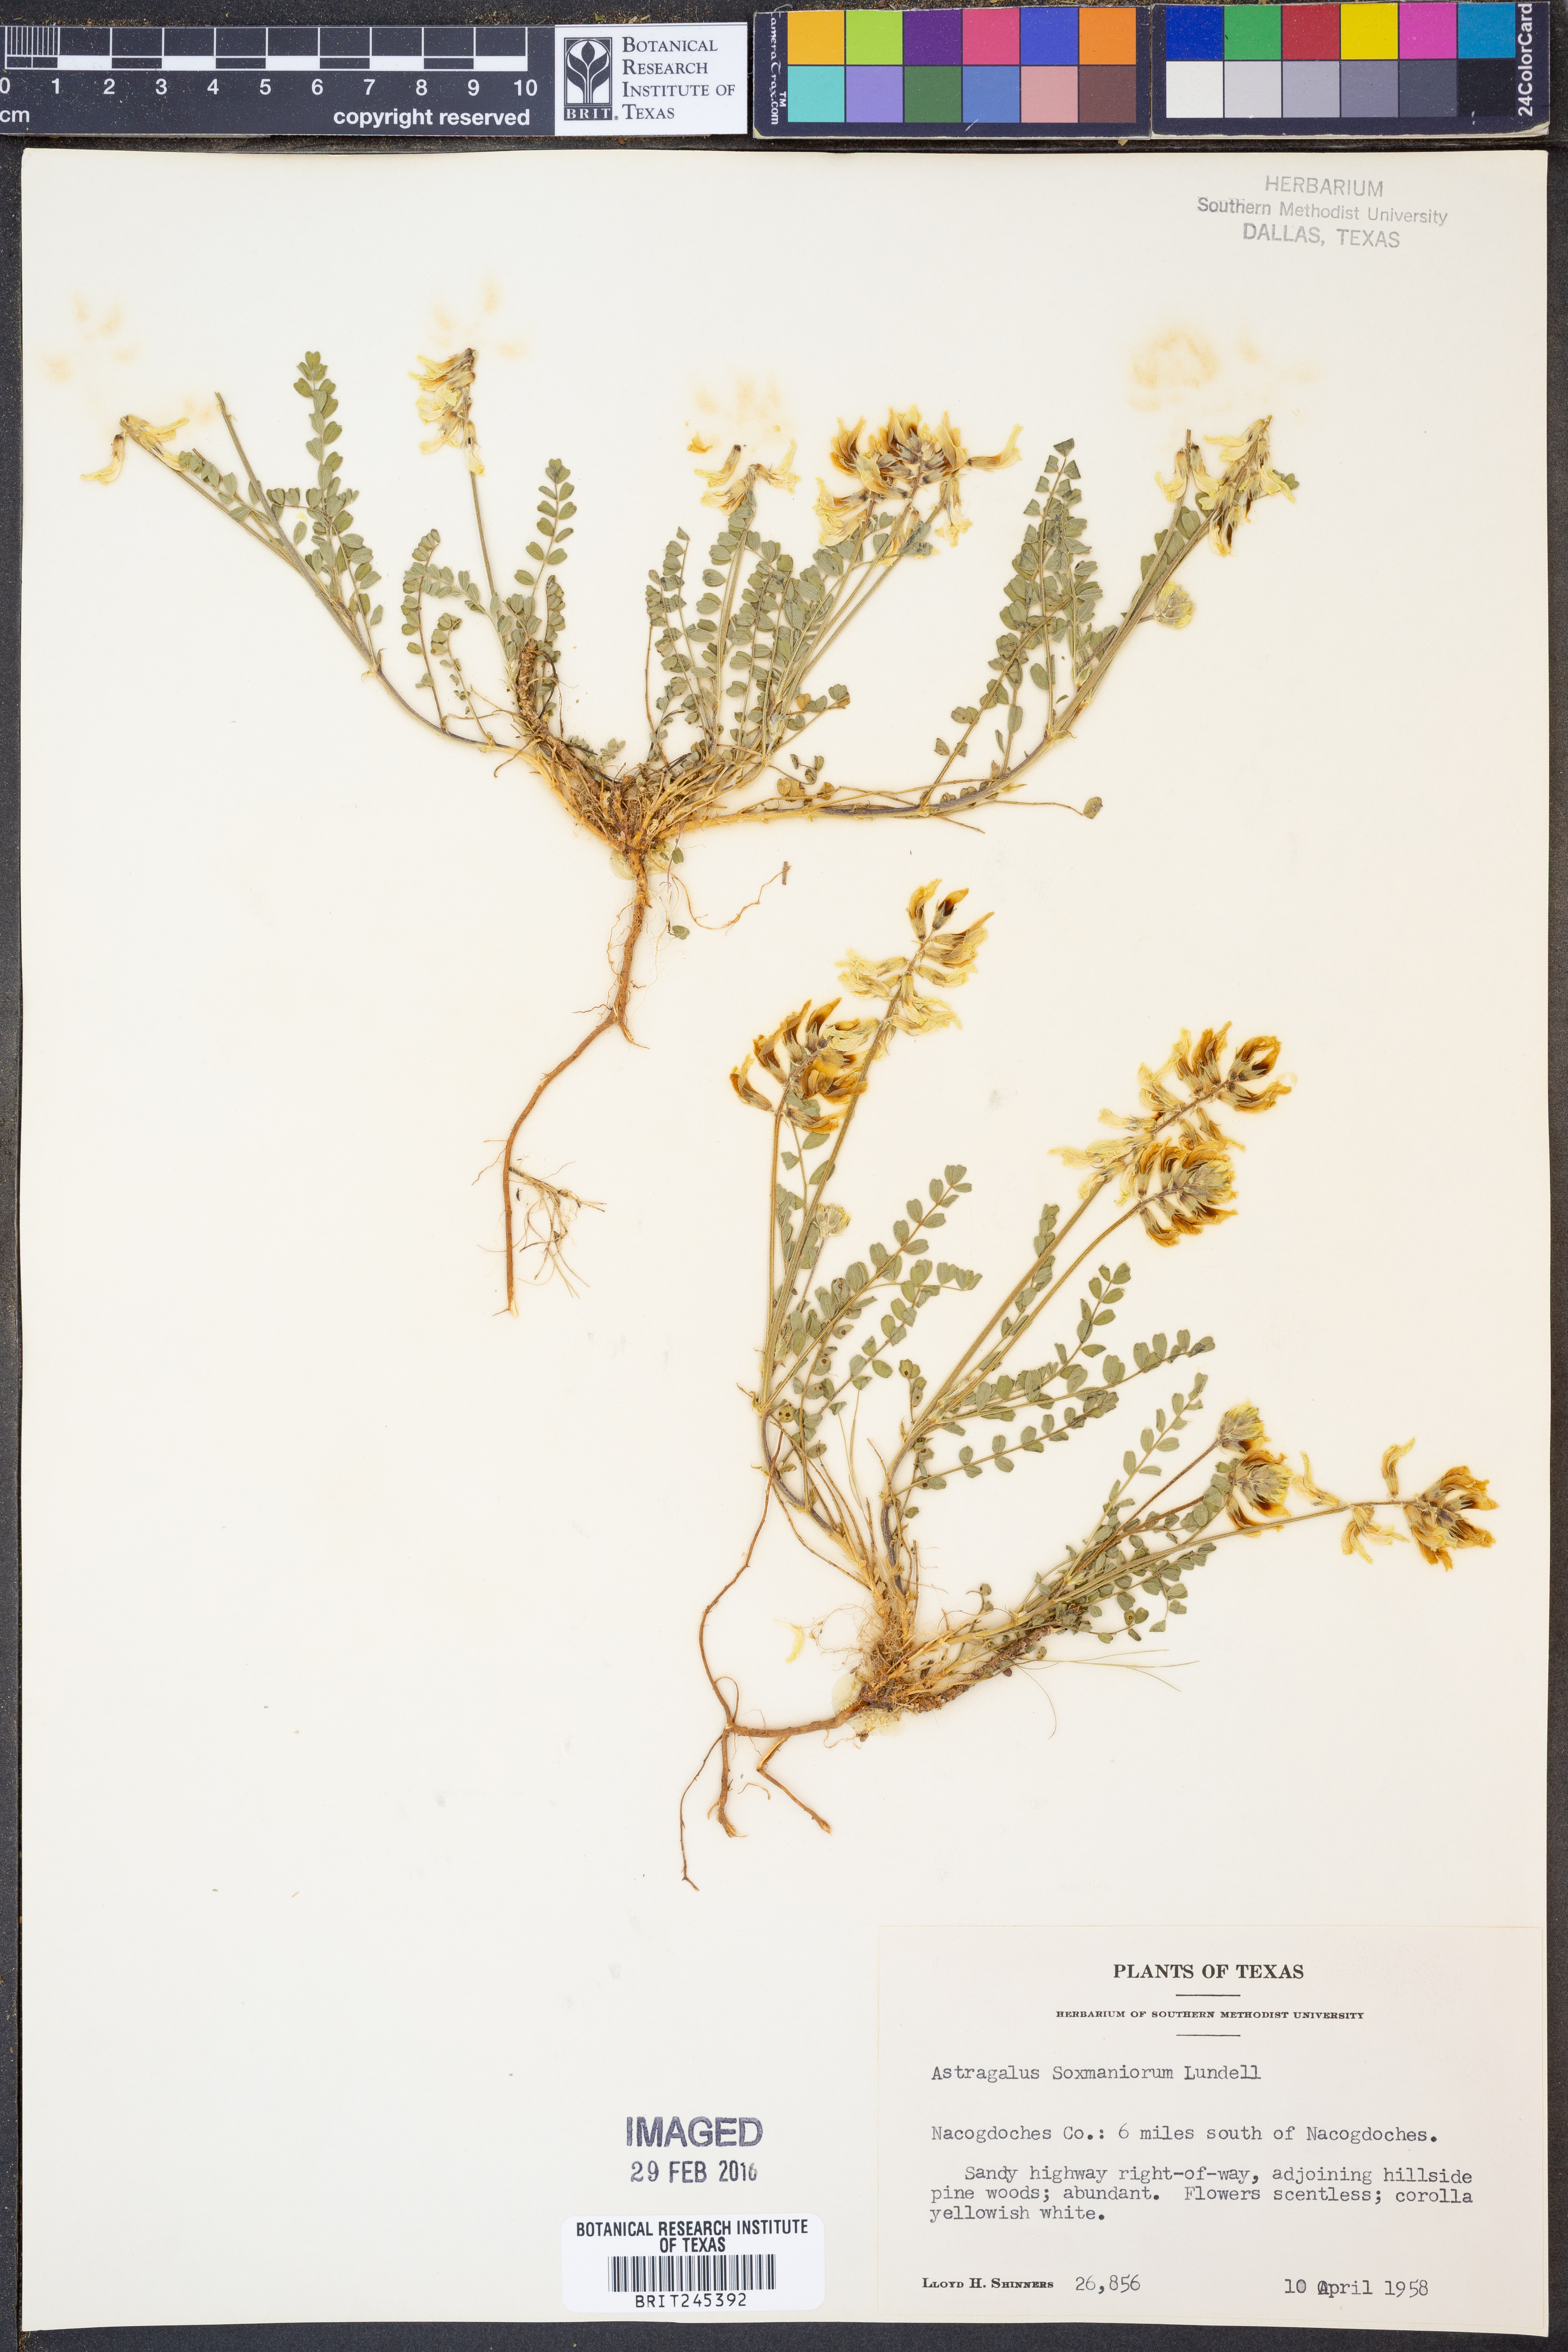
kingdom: Plantae
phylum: Tracheophyta
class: Magnoliopsida
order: Fabales
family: Fabaceae
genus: Astragalus
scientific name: Astragalus soxmaniorum
